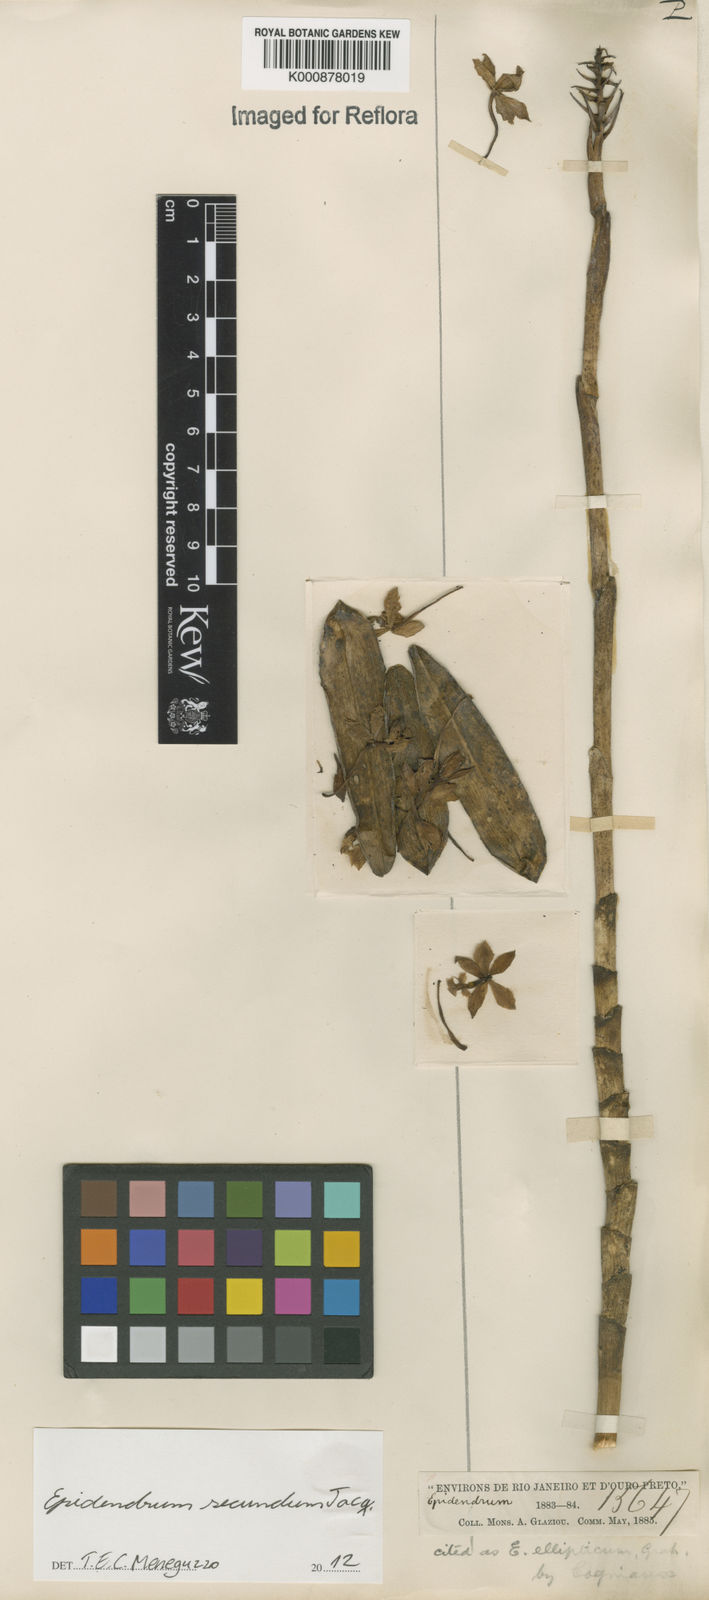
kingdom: Plantae
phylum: Tracheophyta
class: Liliopsida
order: Asparagales
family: Orchidaceae
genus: Epidendrum
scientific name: Epidendrum secundum
